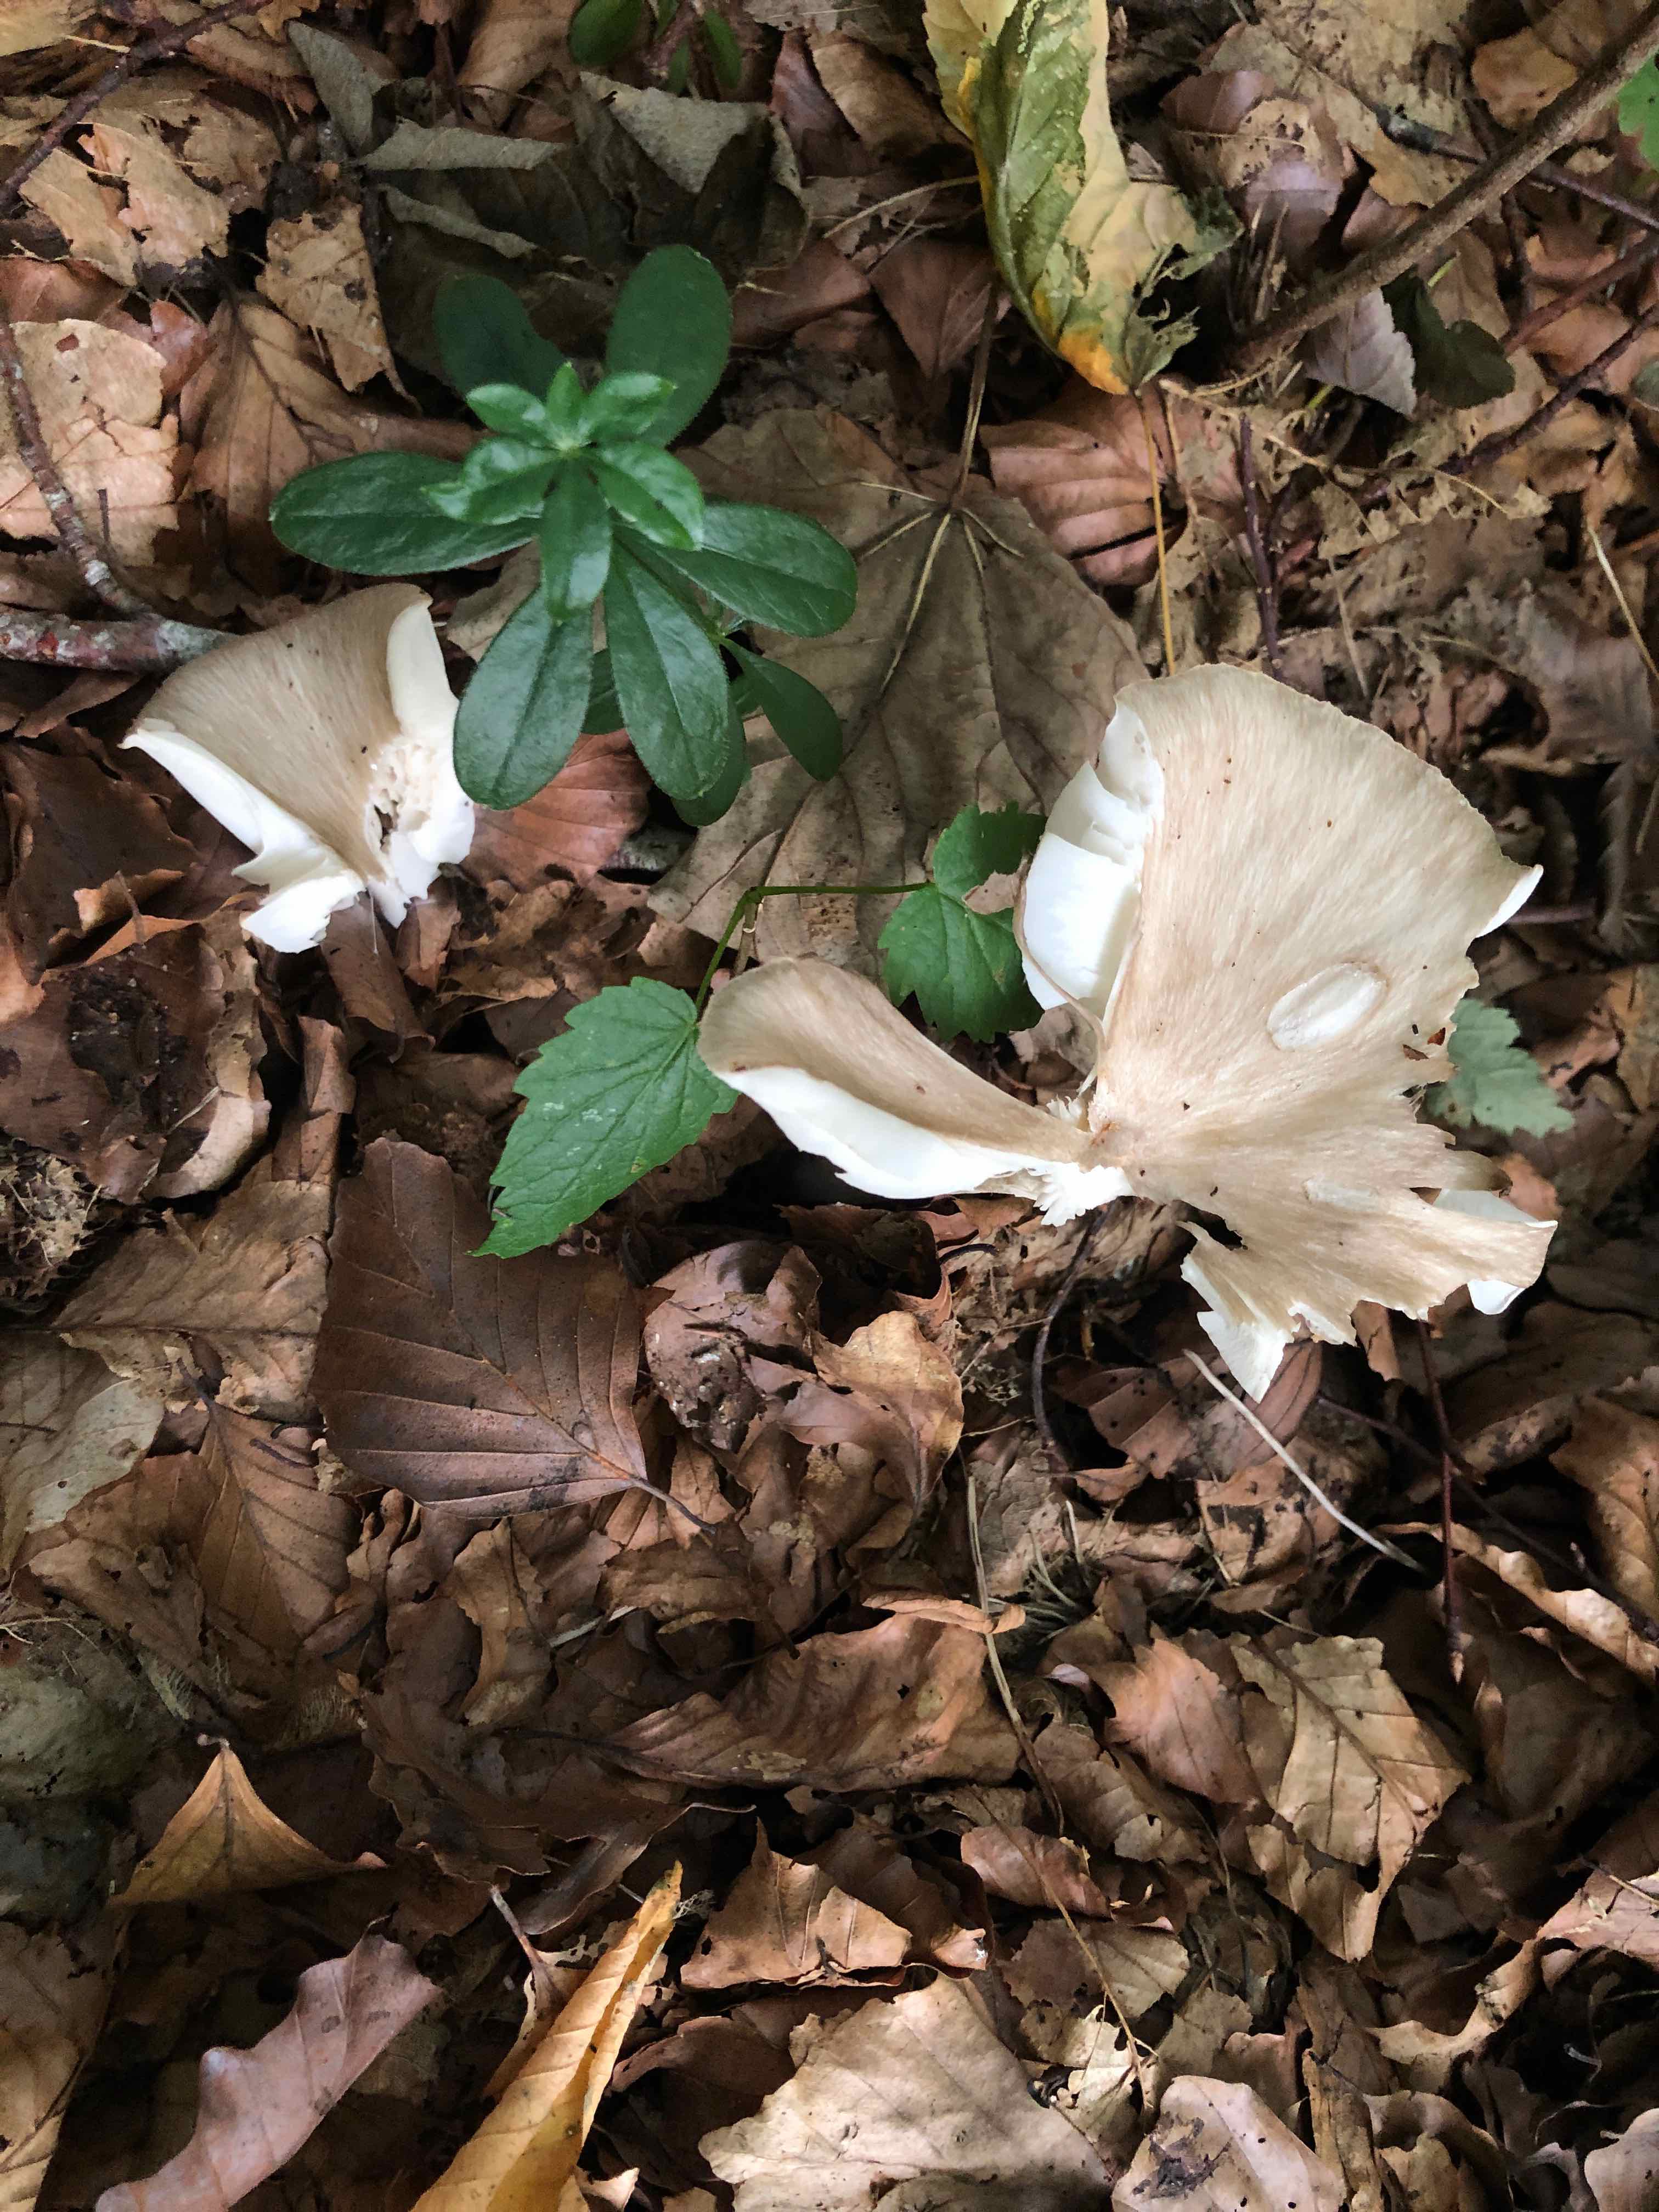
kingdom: Fungi
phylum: Basidiomycota
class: Agaricomycetes
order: Agaricales
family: Tricholomataceae
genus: Megacollybia
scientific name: Megacollybia platyphylla
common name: bredbladet væbnerhat
